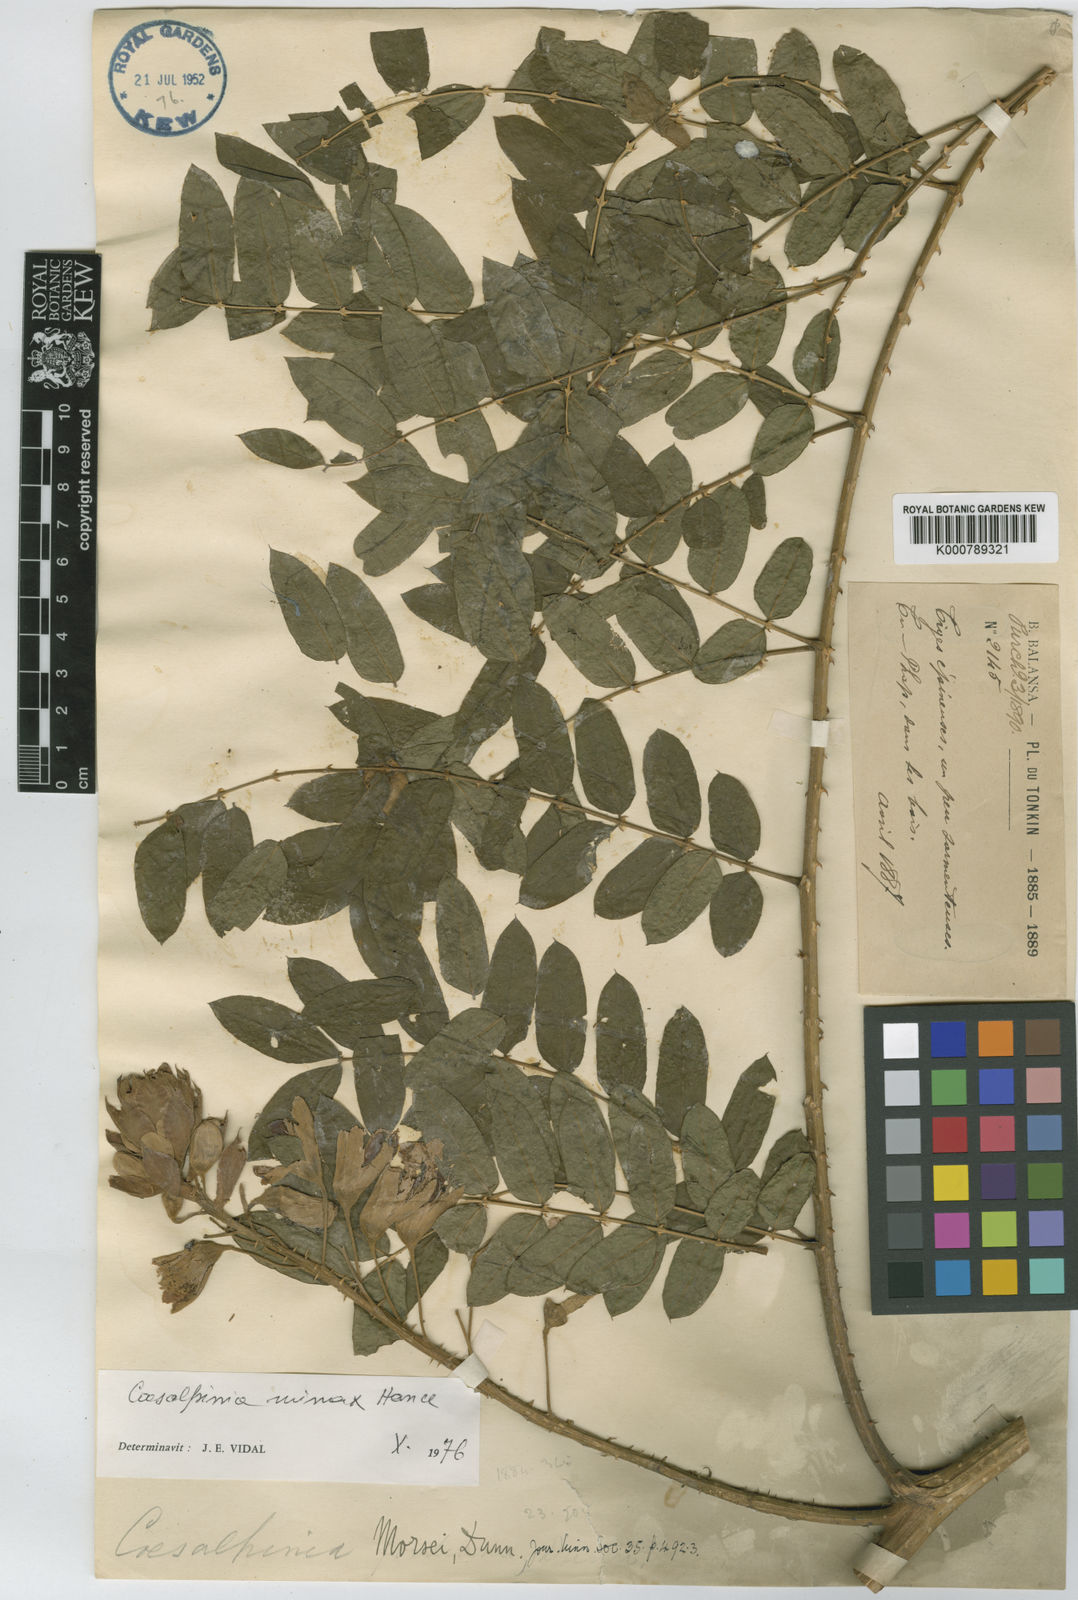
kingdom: Plantae
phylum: Tracheophyta
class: Magnoliopsida
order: Fabales
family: Fabaceae
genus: Guilandina
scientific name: Guilandina
